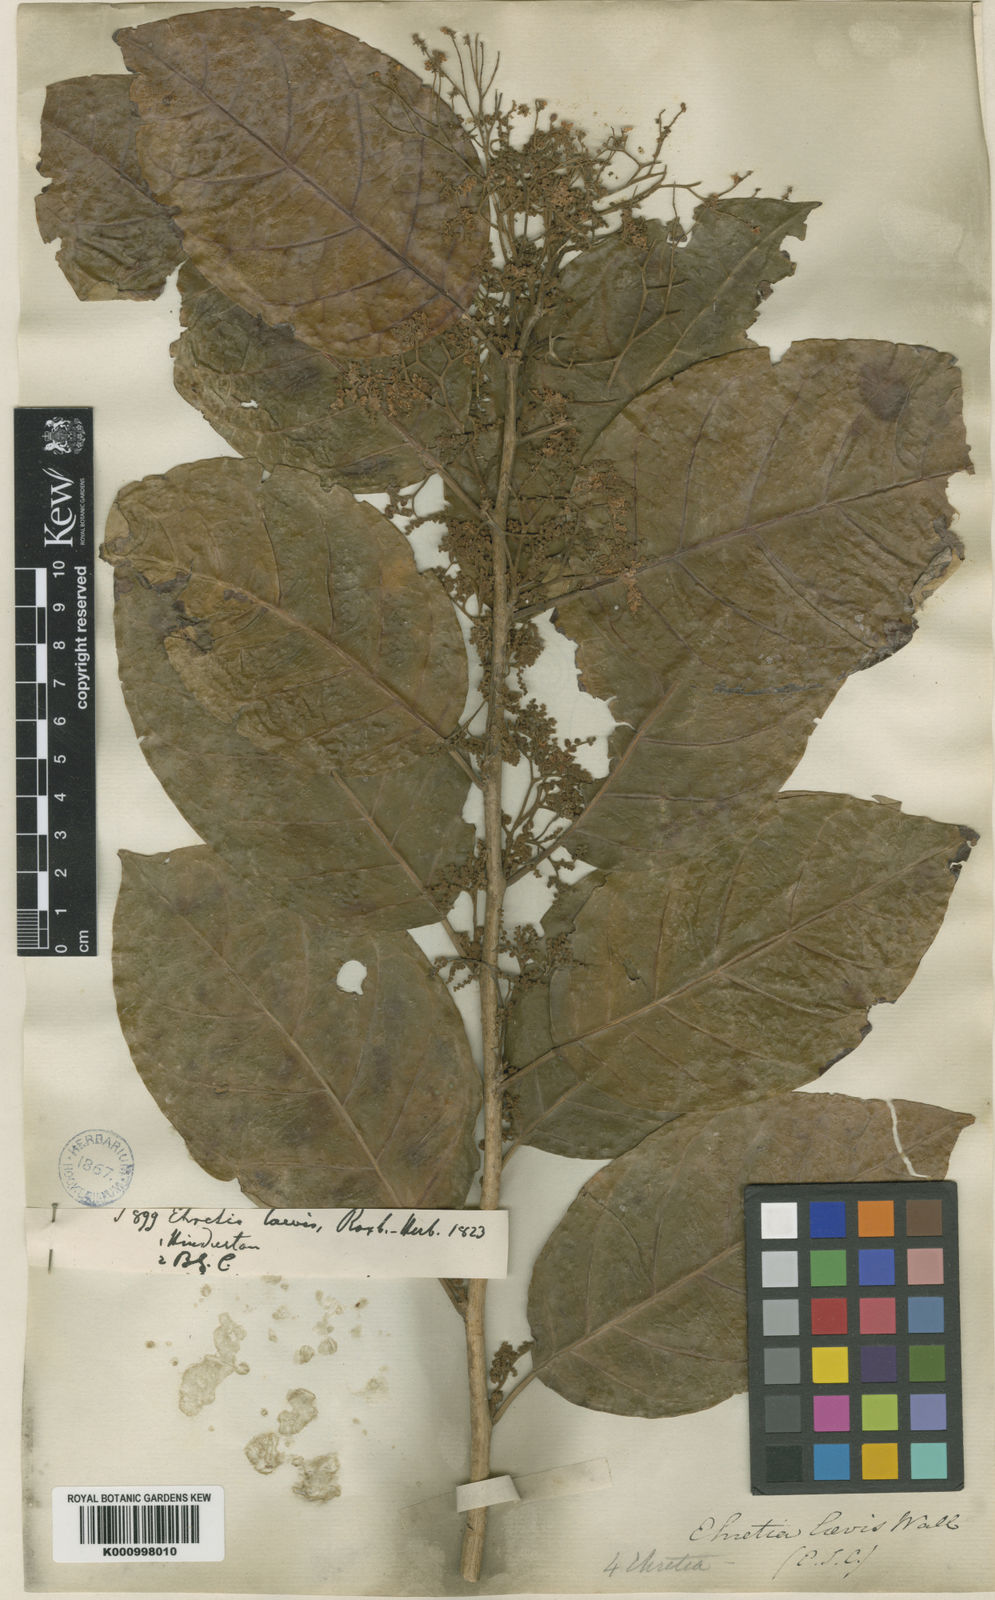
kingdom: Plantae
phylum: Tracheophyta
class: Magnoliopsida
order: Boraginales
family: Ehretiaceae
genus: Ehretia
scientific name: Ehretia laevis
